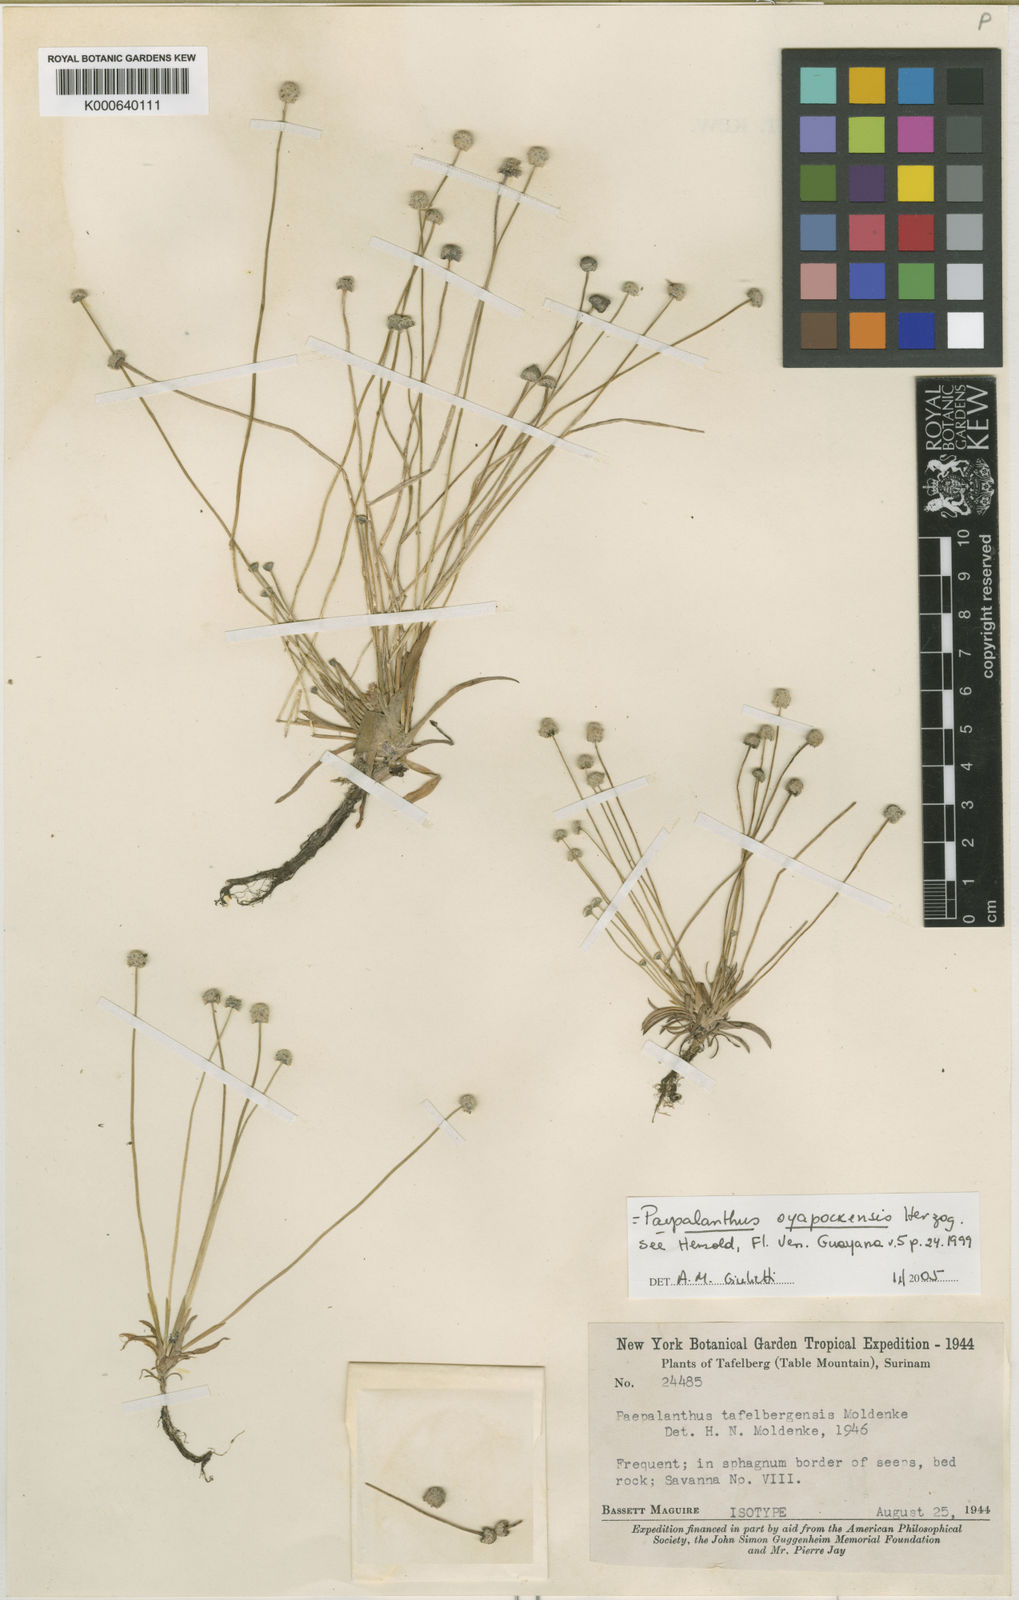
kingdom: Plantae
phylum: Tracheophyta
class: Liliopsida
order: Poales
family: Eriocaulaceae
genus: Paepalanthus
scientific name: Paepalanthus oyapockensis
